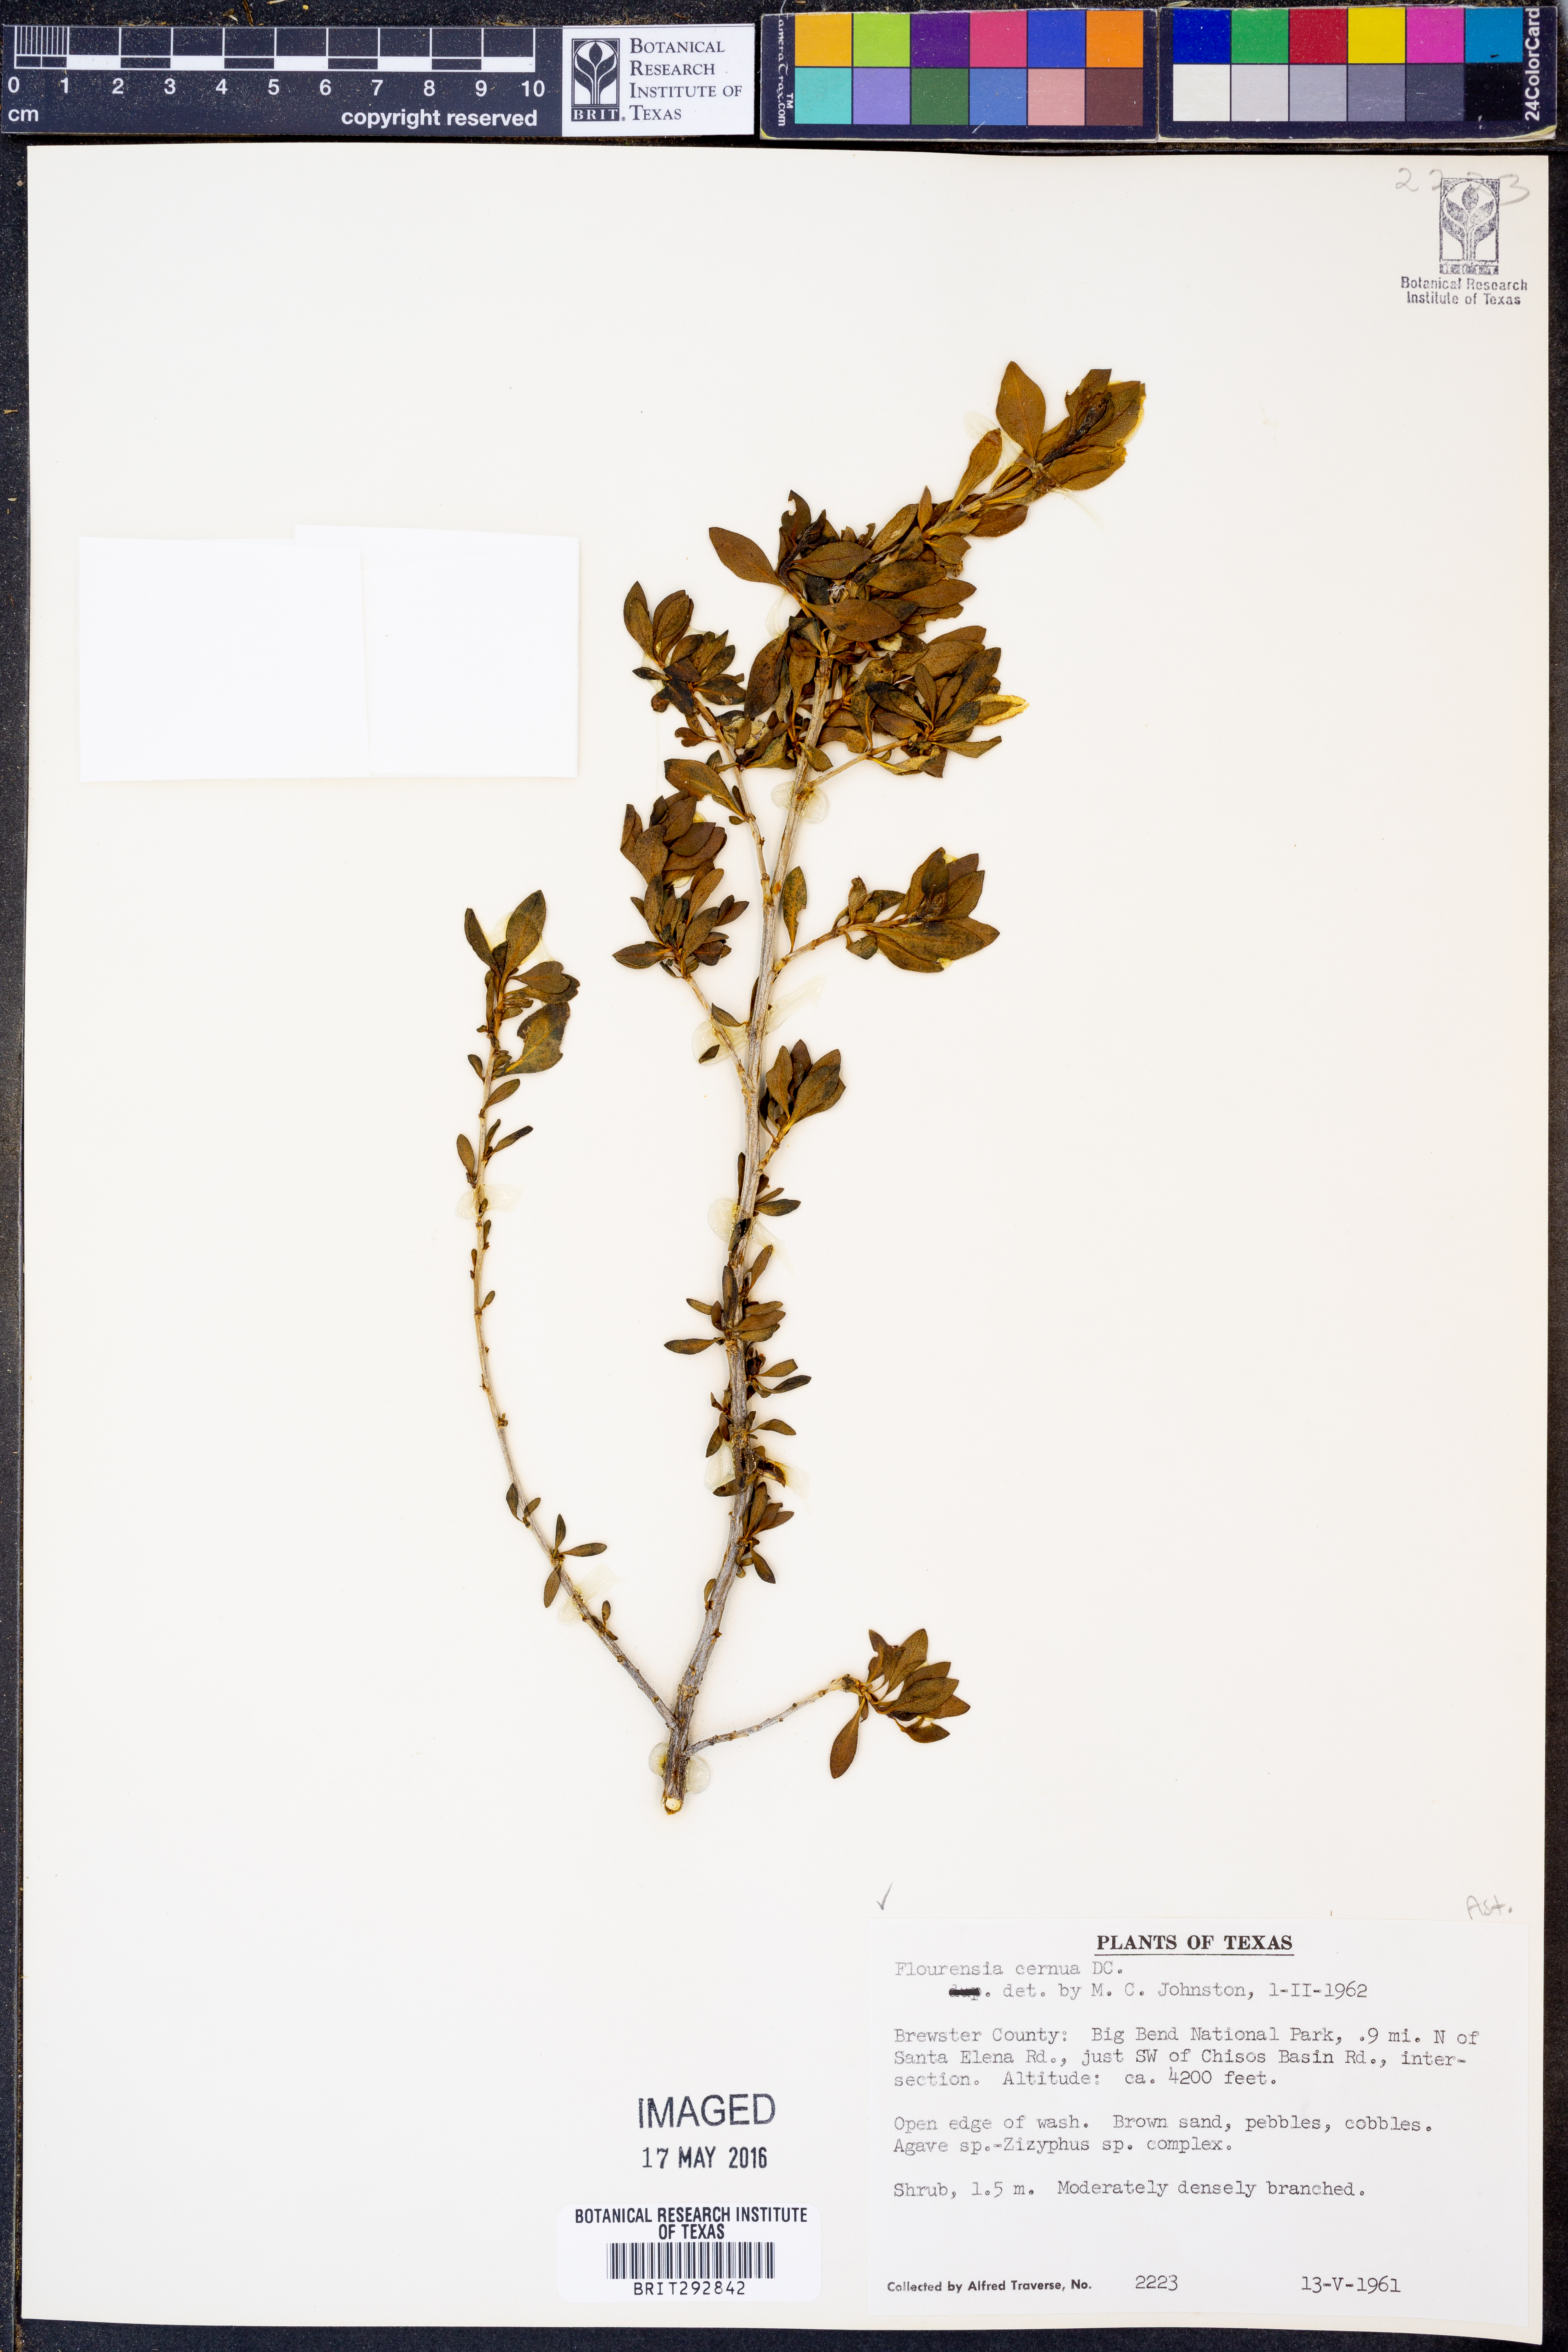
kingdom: Plantae
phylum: Tracheophyta
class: Magnoliopsida
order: Asterales
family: Asteraceae
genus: Flourensia
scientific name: Flourensia cernua
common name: Varnishbush
